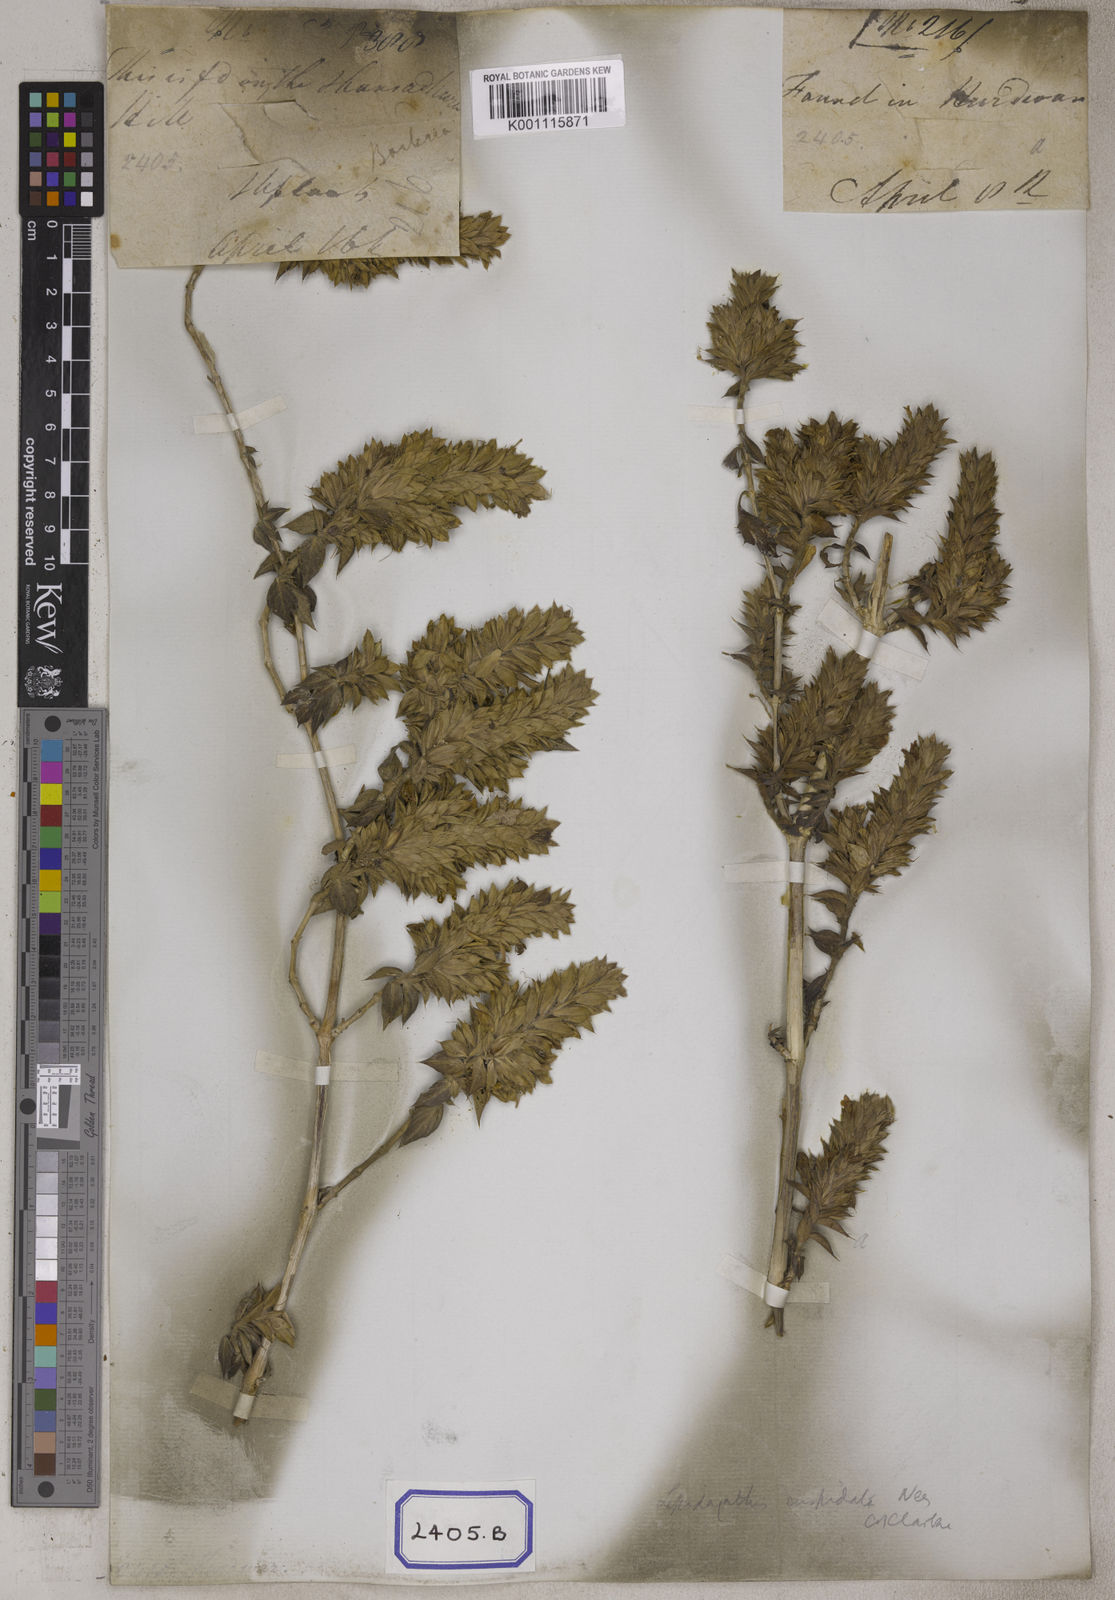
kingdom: Plantae
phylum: Tracheophyta
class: Magnoliopsida
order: Lamiales
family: Acanthaceae
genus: Lepidagathis
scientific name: Lepidagathis cuspidata
